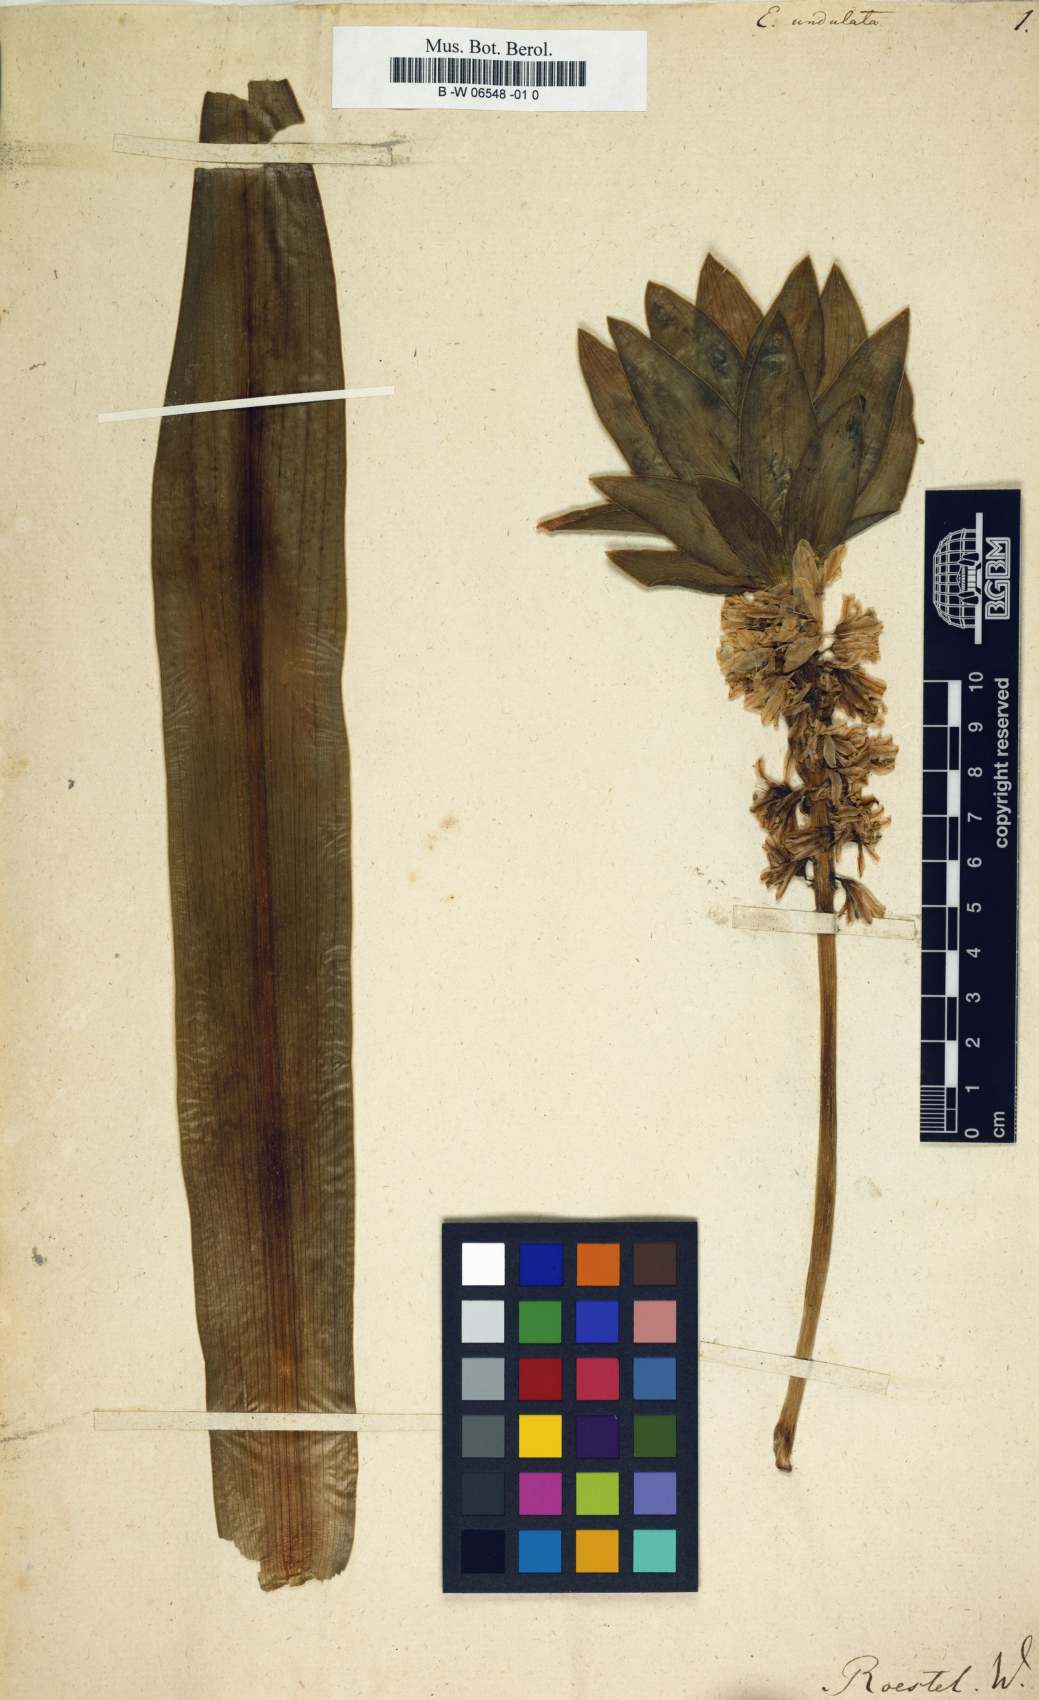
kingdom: Plantae
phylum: Tracheophyta
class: Liliopsida
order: Asparagales
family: Asparagaceae
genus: Eucomis
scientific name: Eucomis autumnalis
